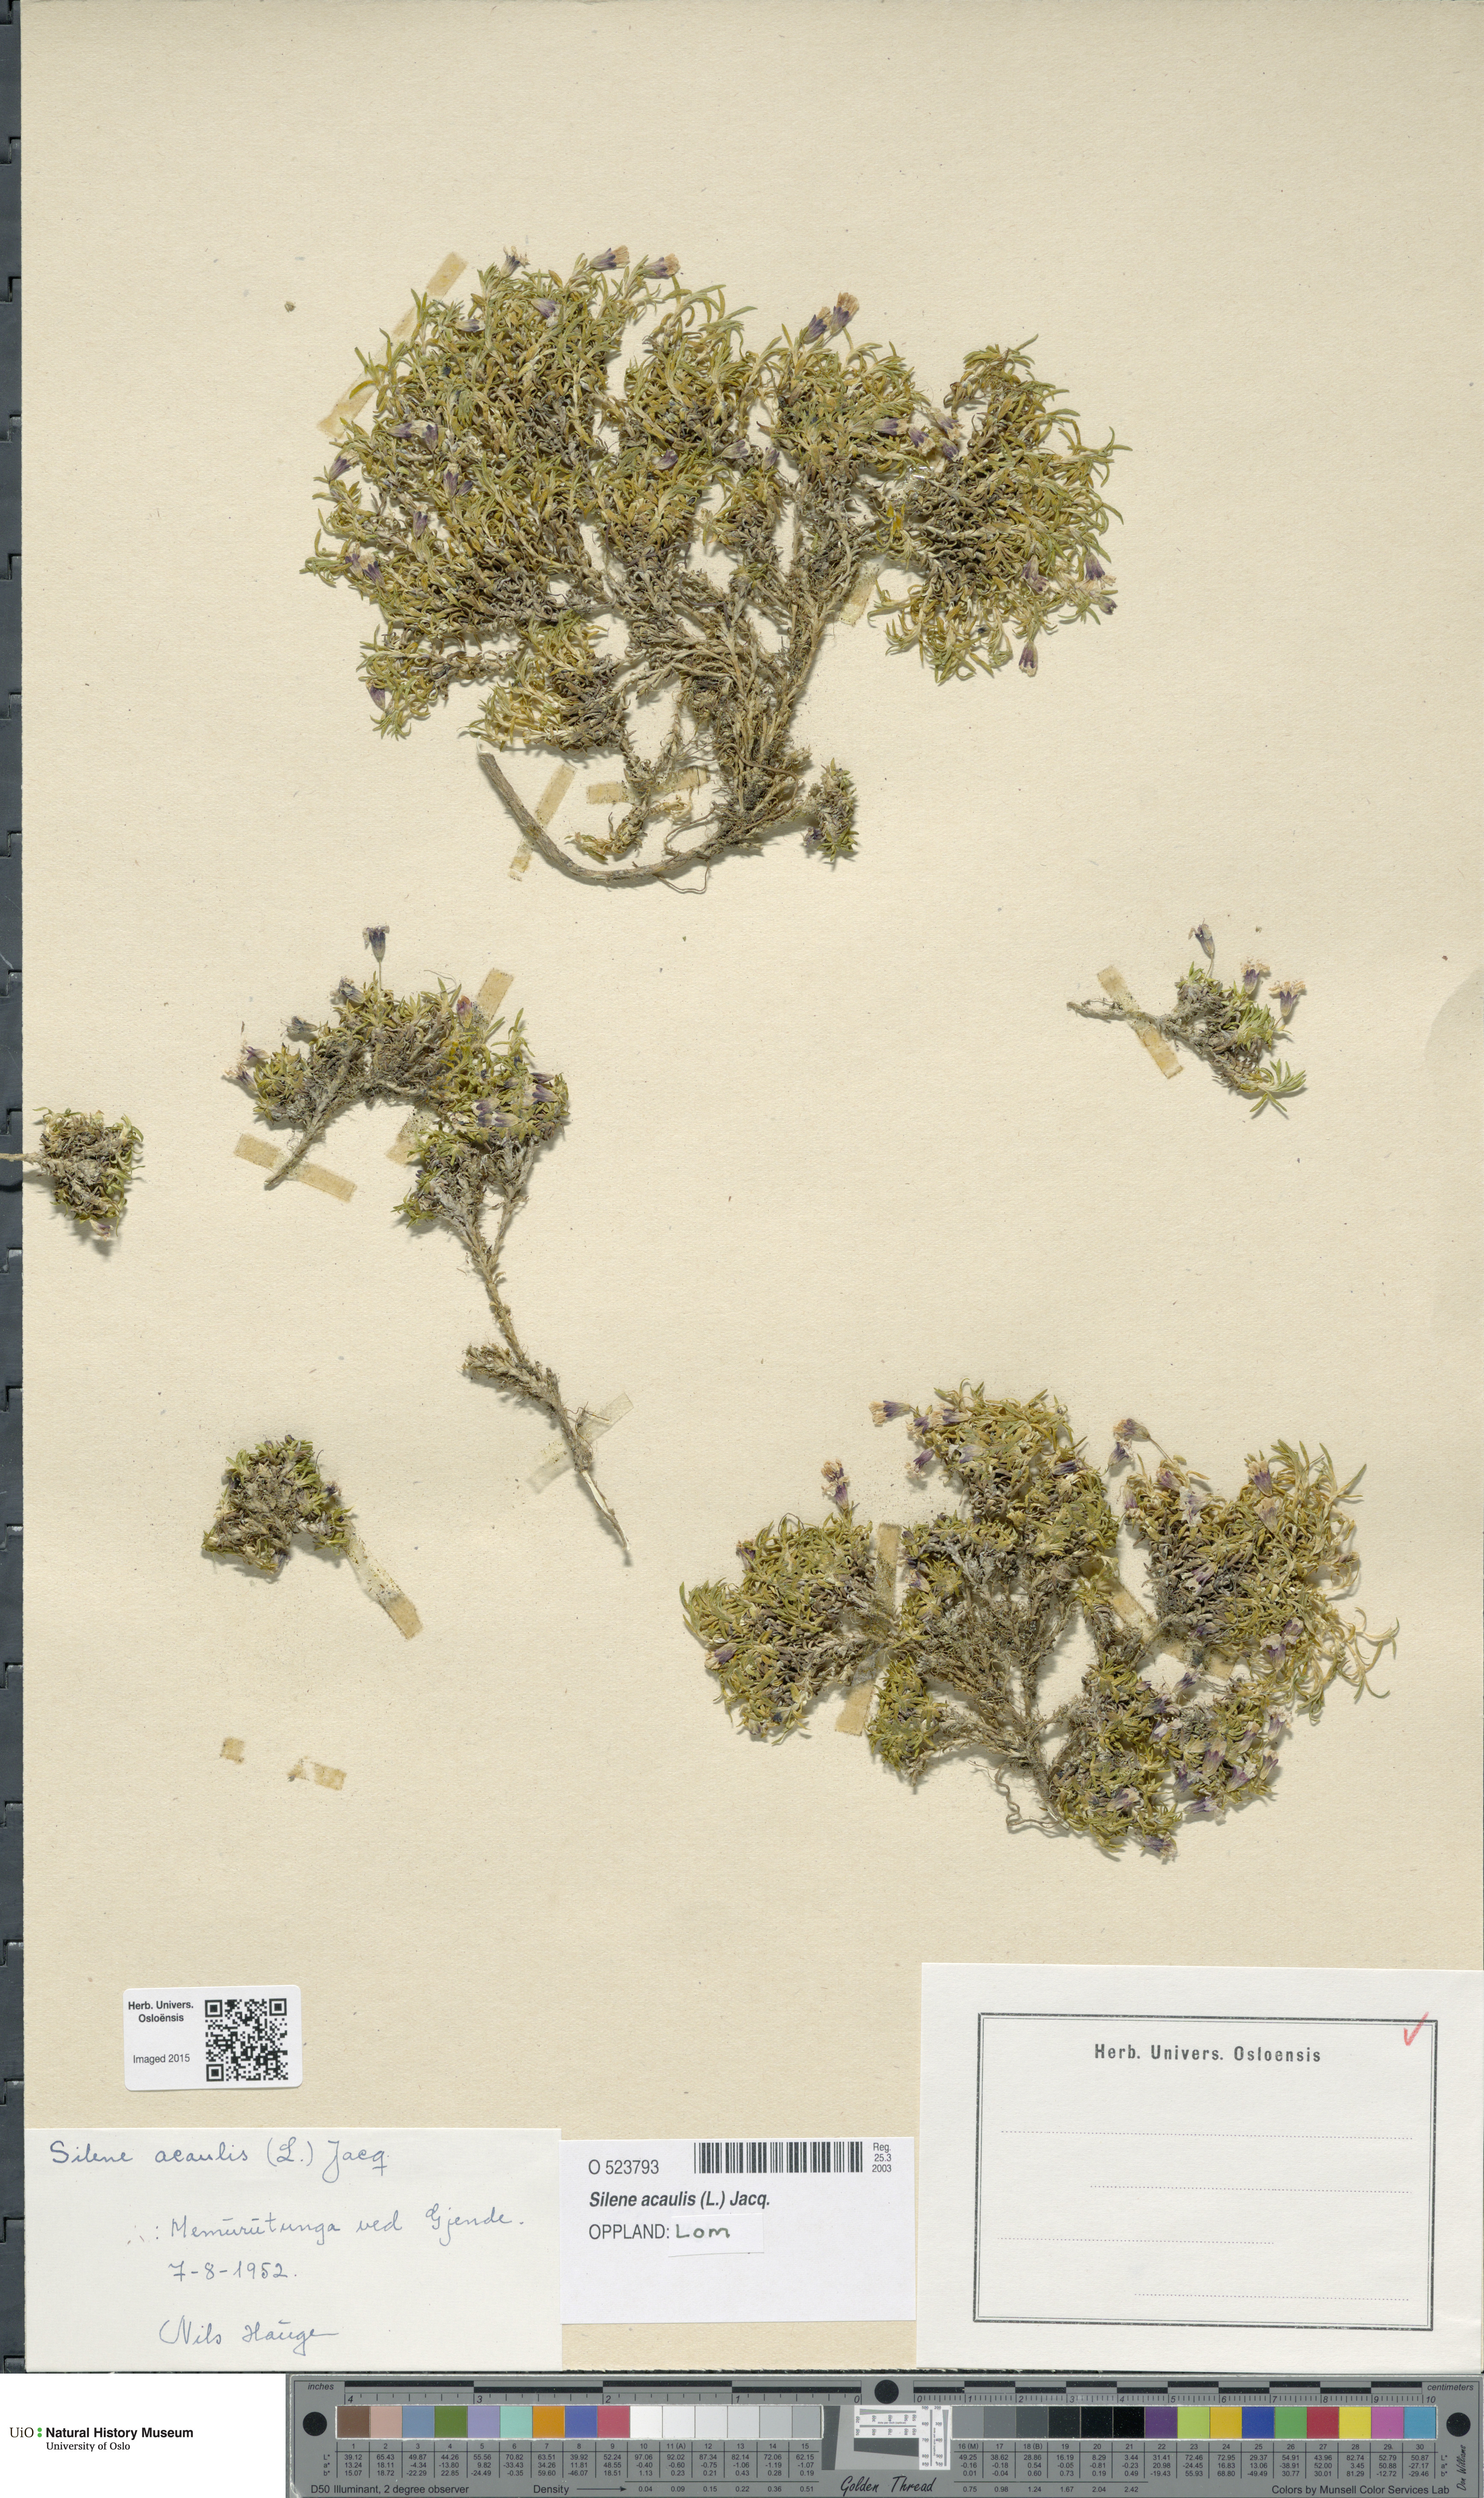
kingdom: Plantae
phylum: Tracheophyta
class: Magnoliopsida
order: Caryophyllales
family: Caryophyllaceae
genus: Silene
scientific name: Silene acaulis
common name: Moss campion
